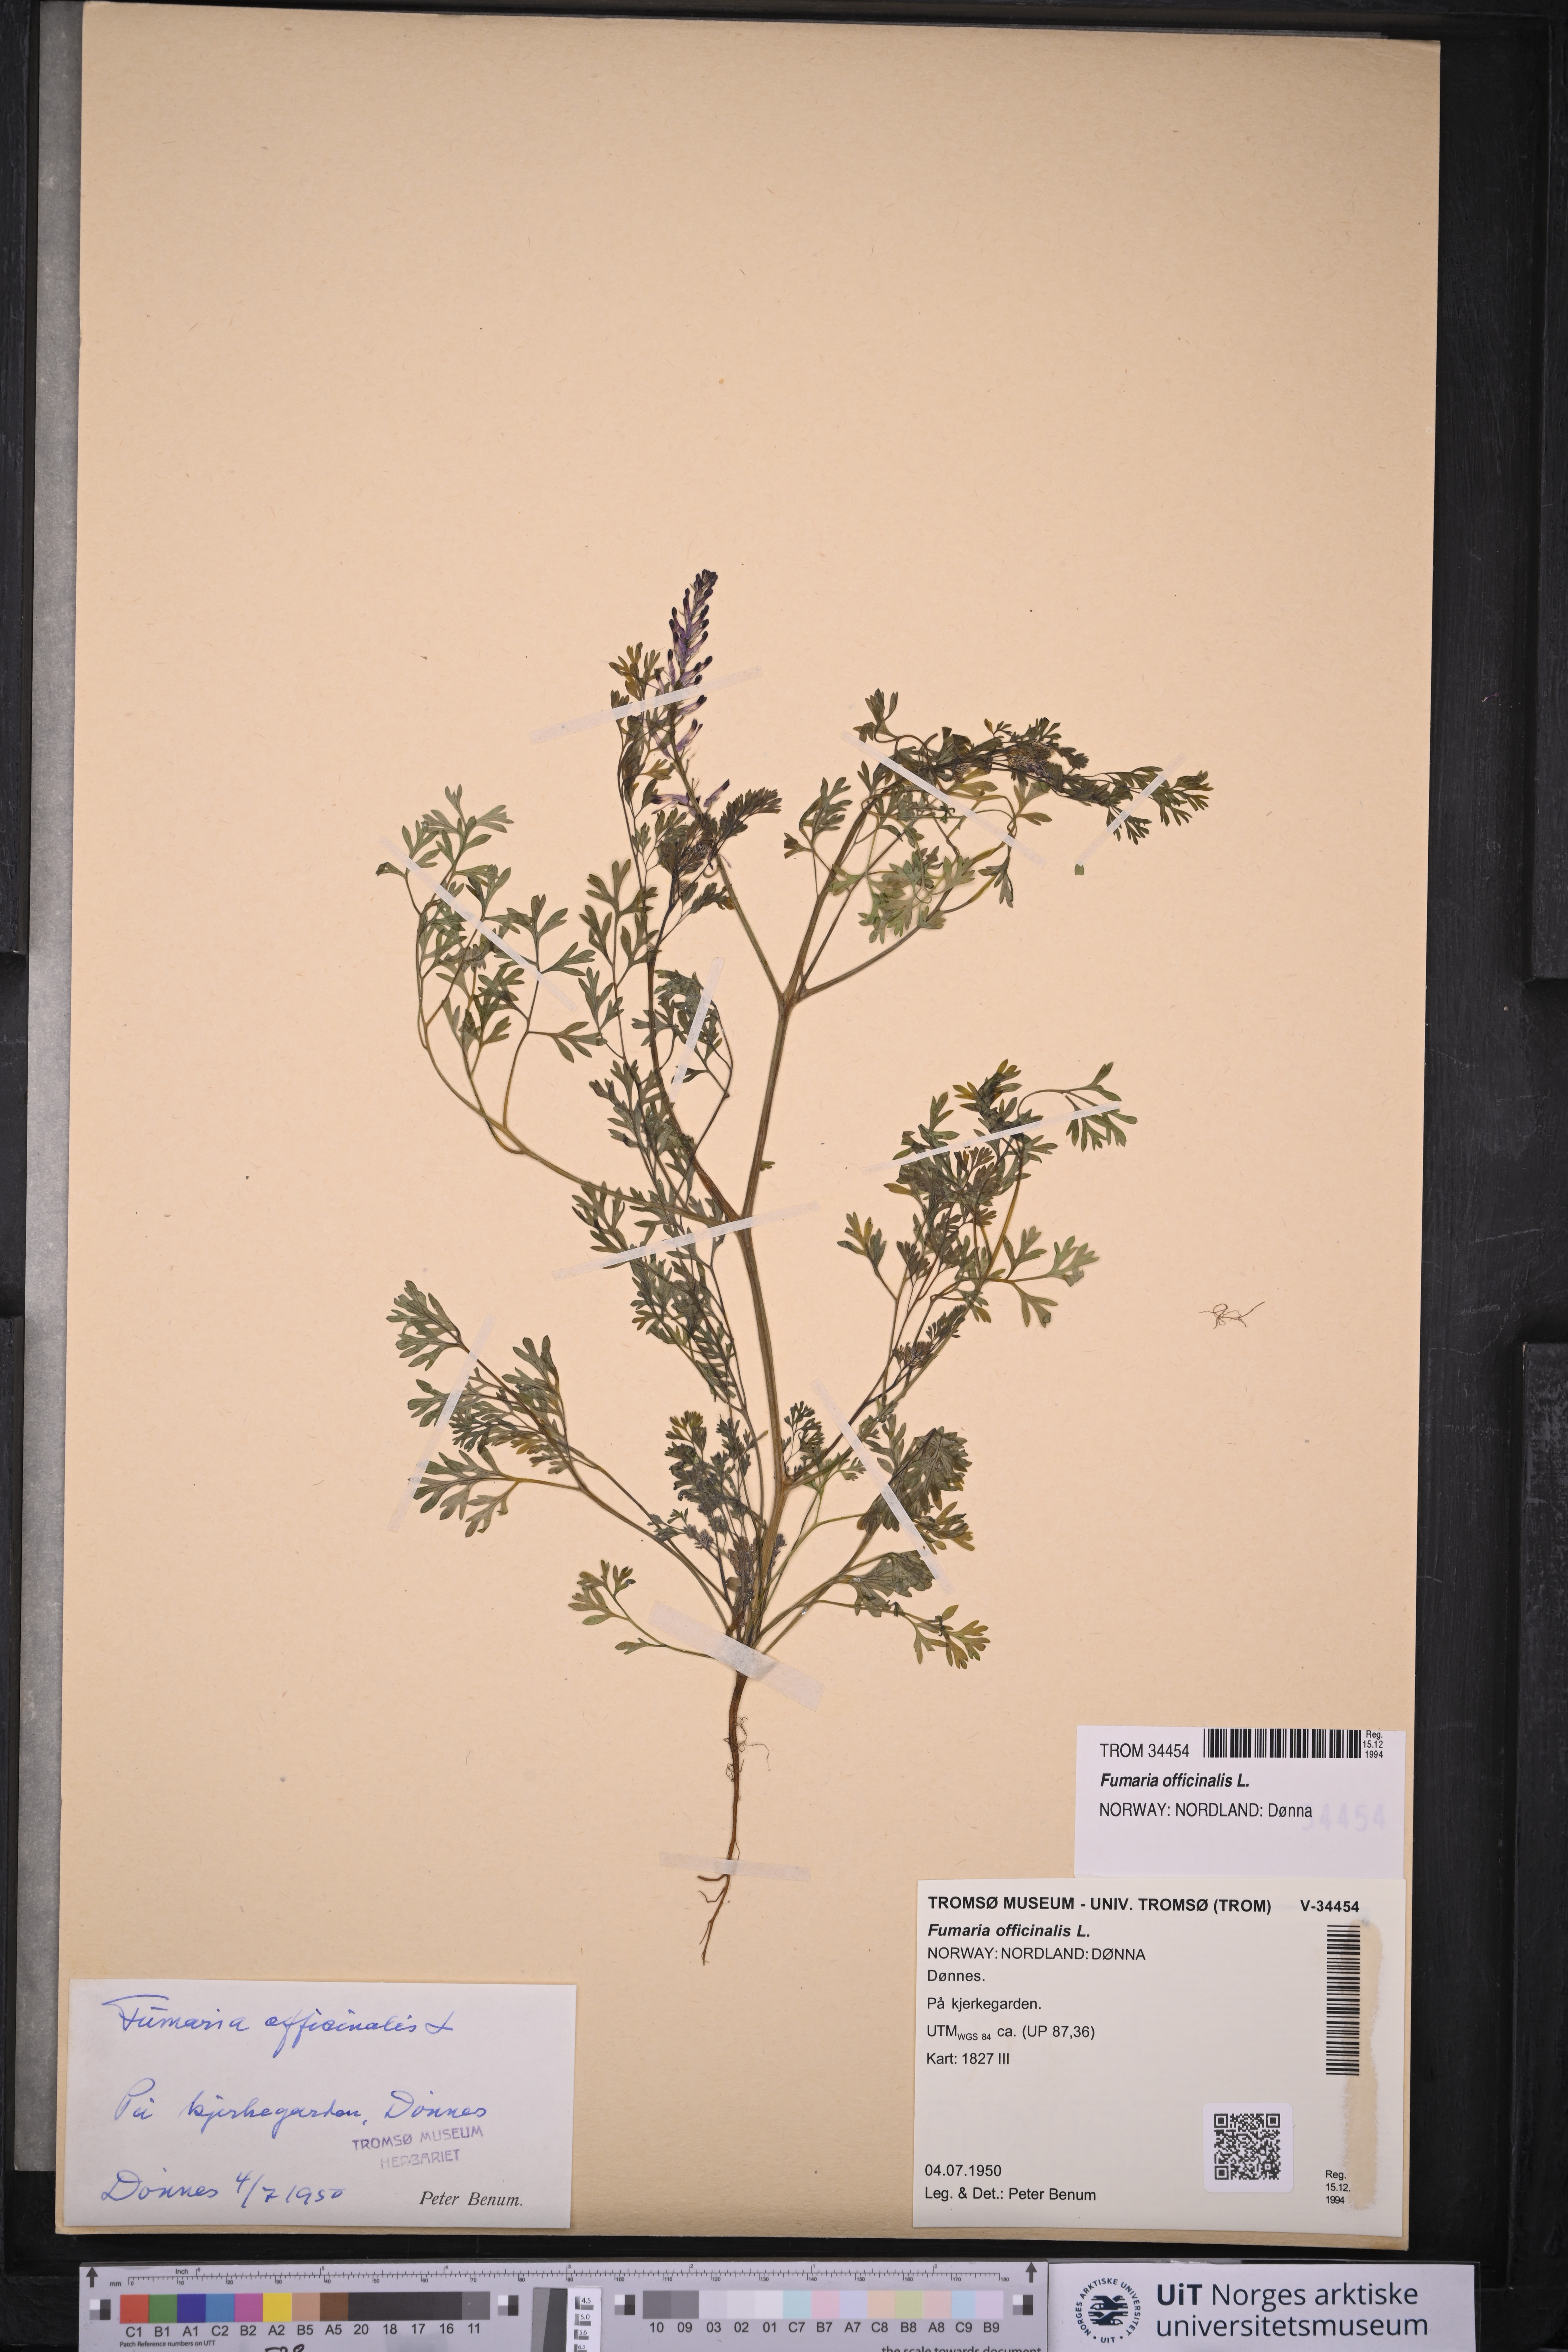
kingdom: Plantae
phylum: Tracheophyta
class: Magnoliopsida
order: Ranunculales
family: Papaveraceae
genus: Fumaria
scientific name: Fumaria officinalis
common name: Common fumitory
